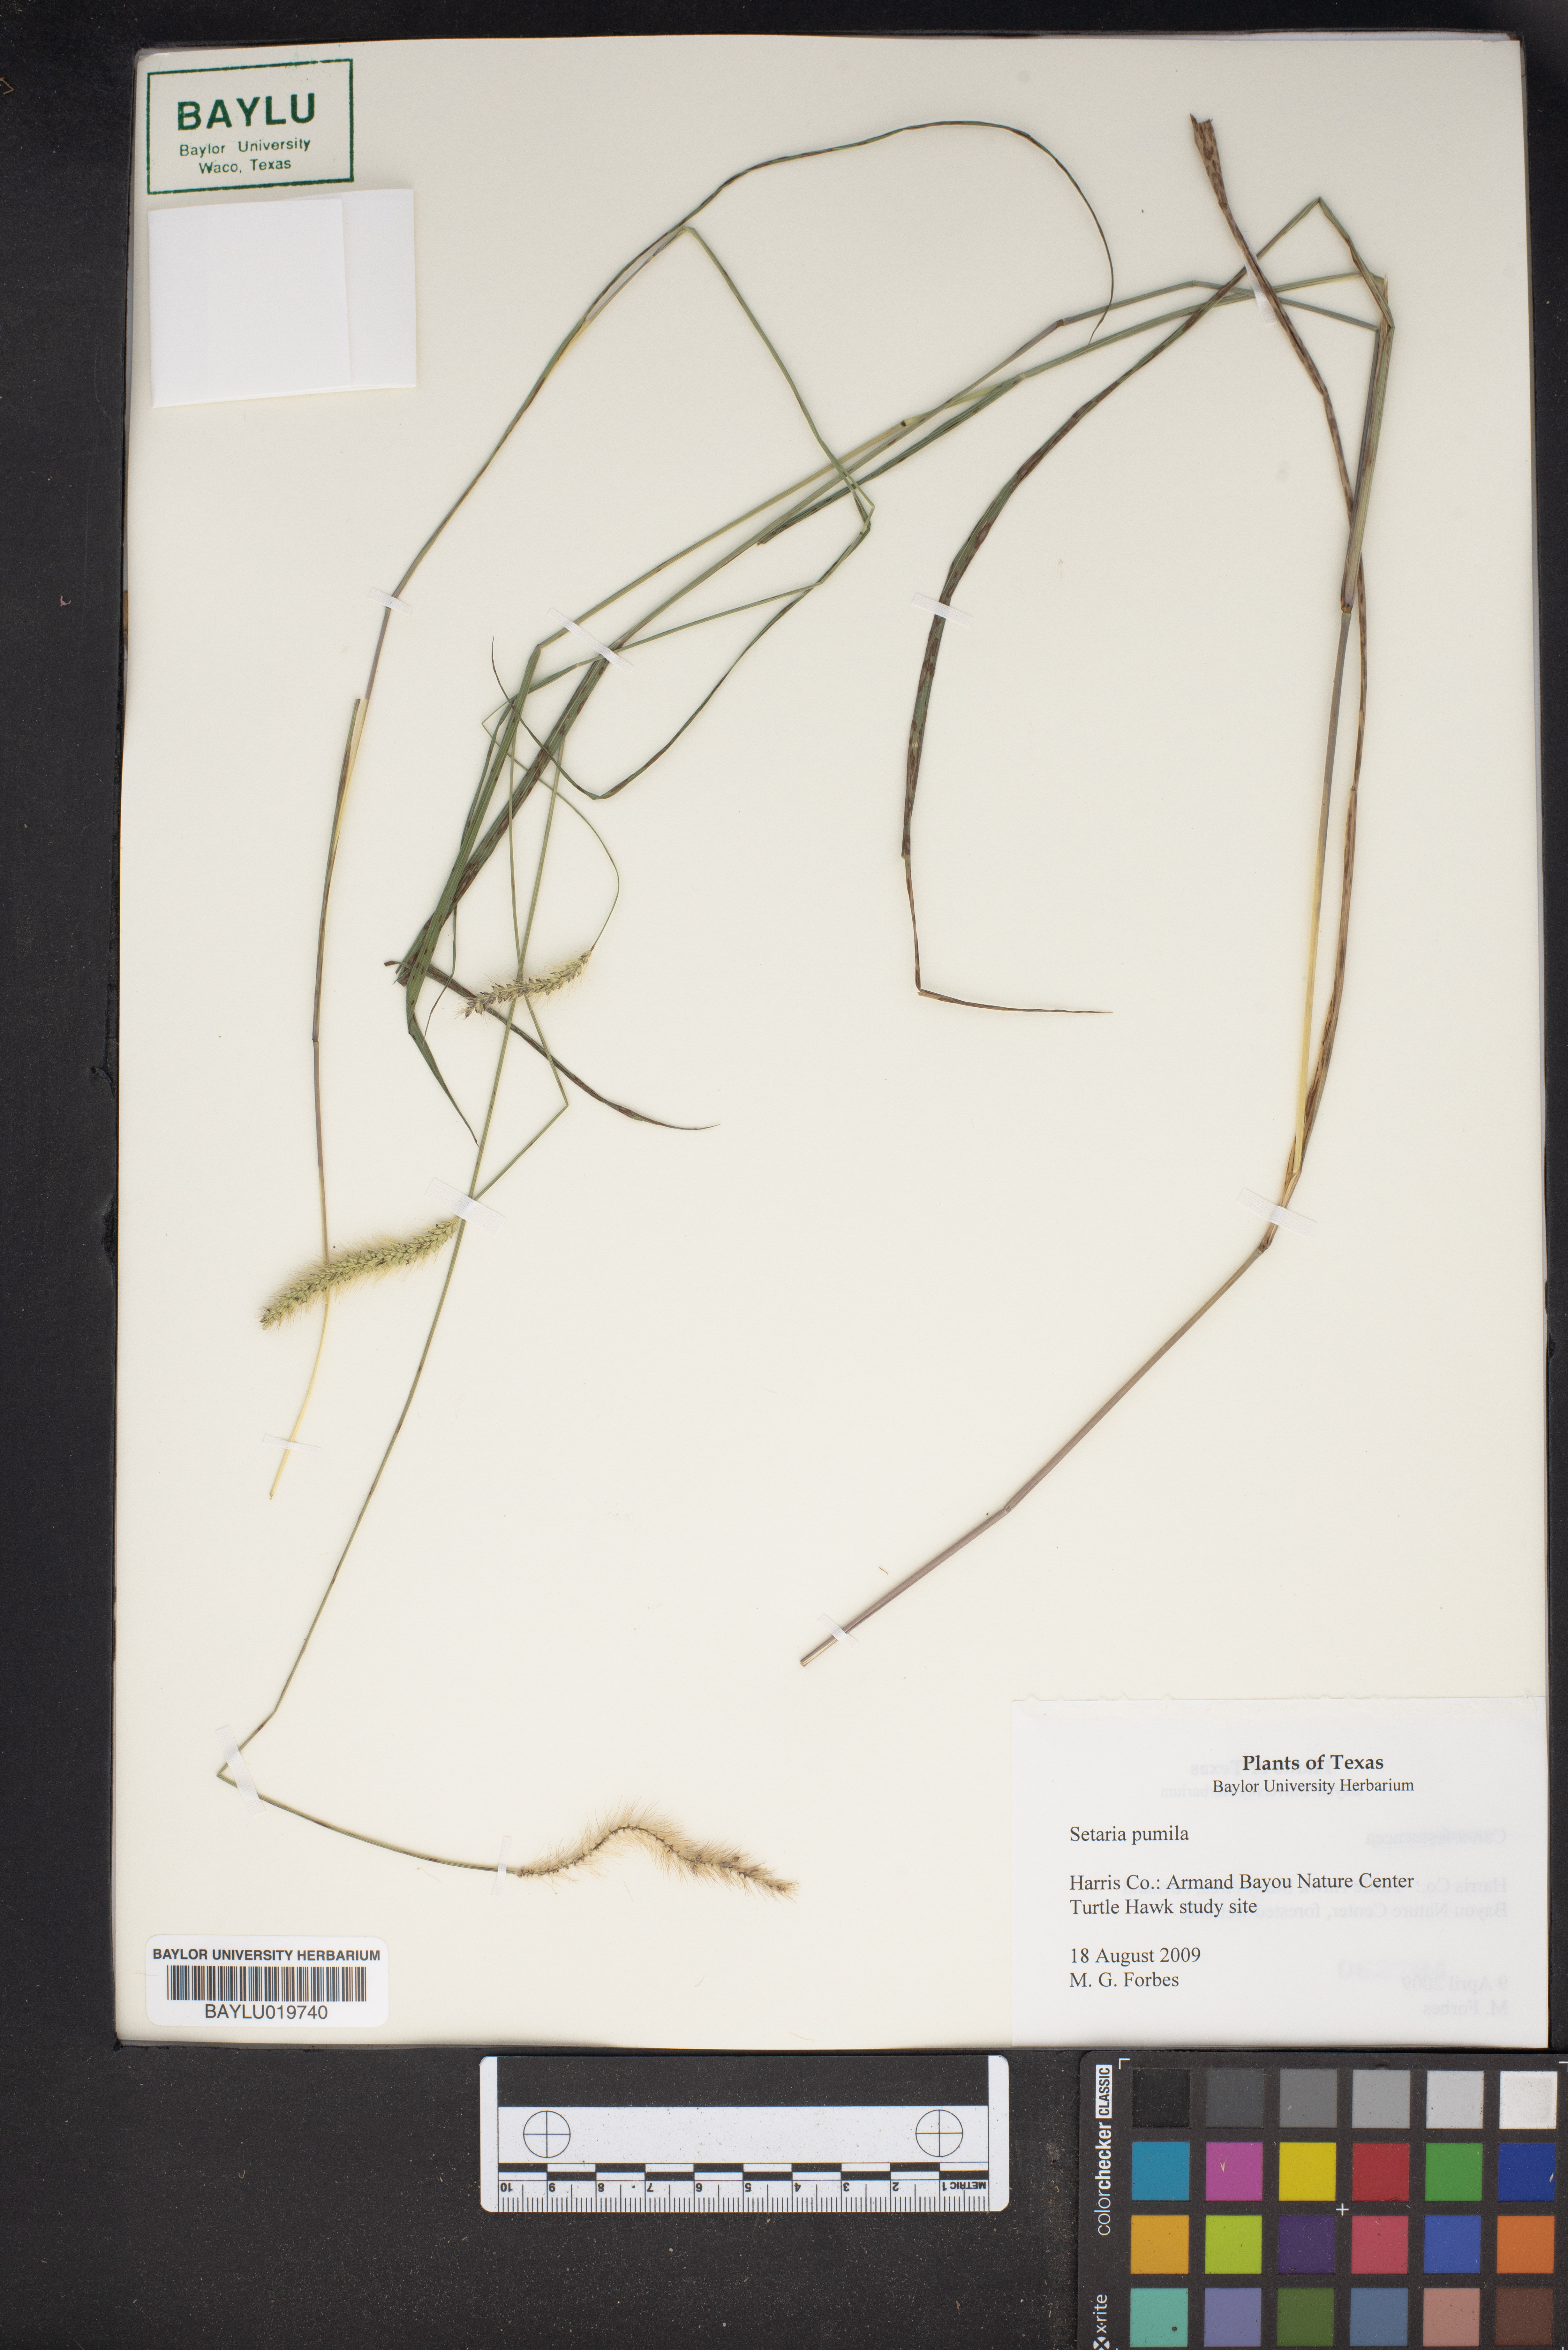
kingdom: Plantae
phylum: Tracheophyta
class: Liliopsida
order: Poales
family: Poaceae
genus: Setaria
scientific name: Setaria pumila
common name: Yellow bristle-grass
